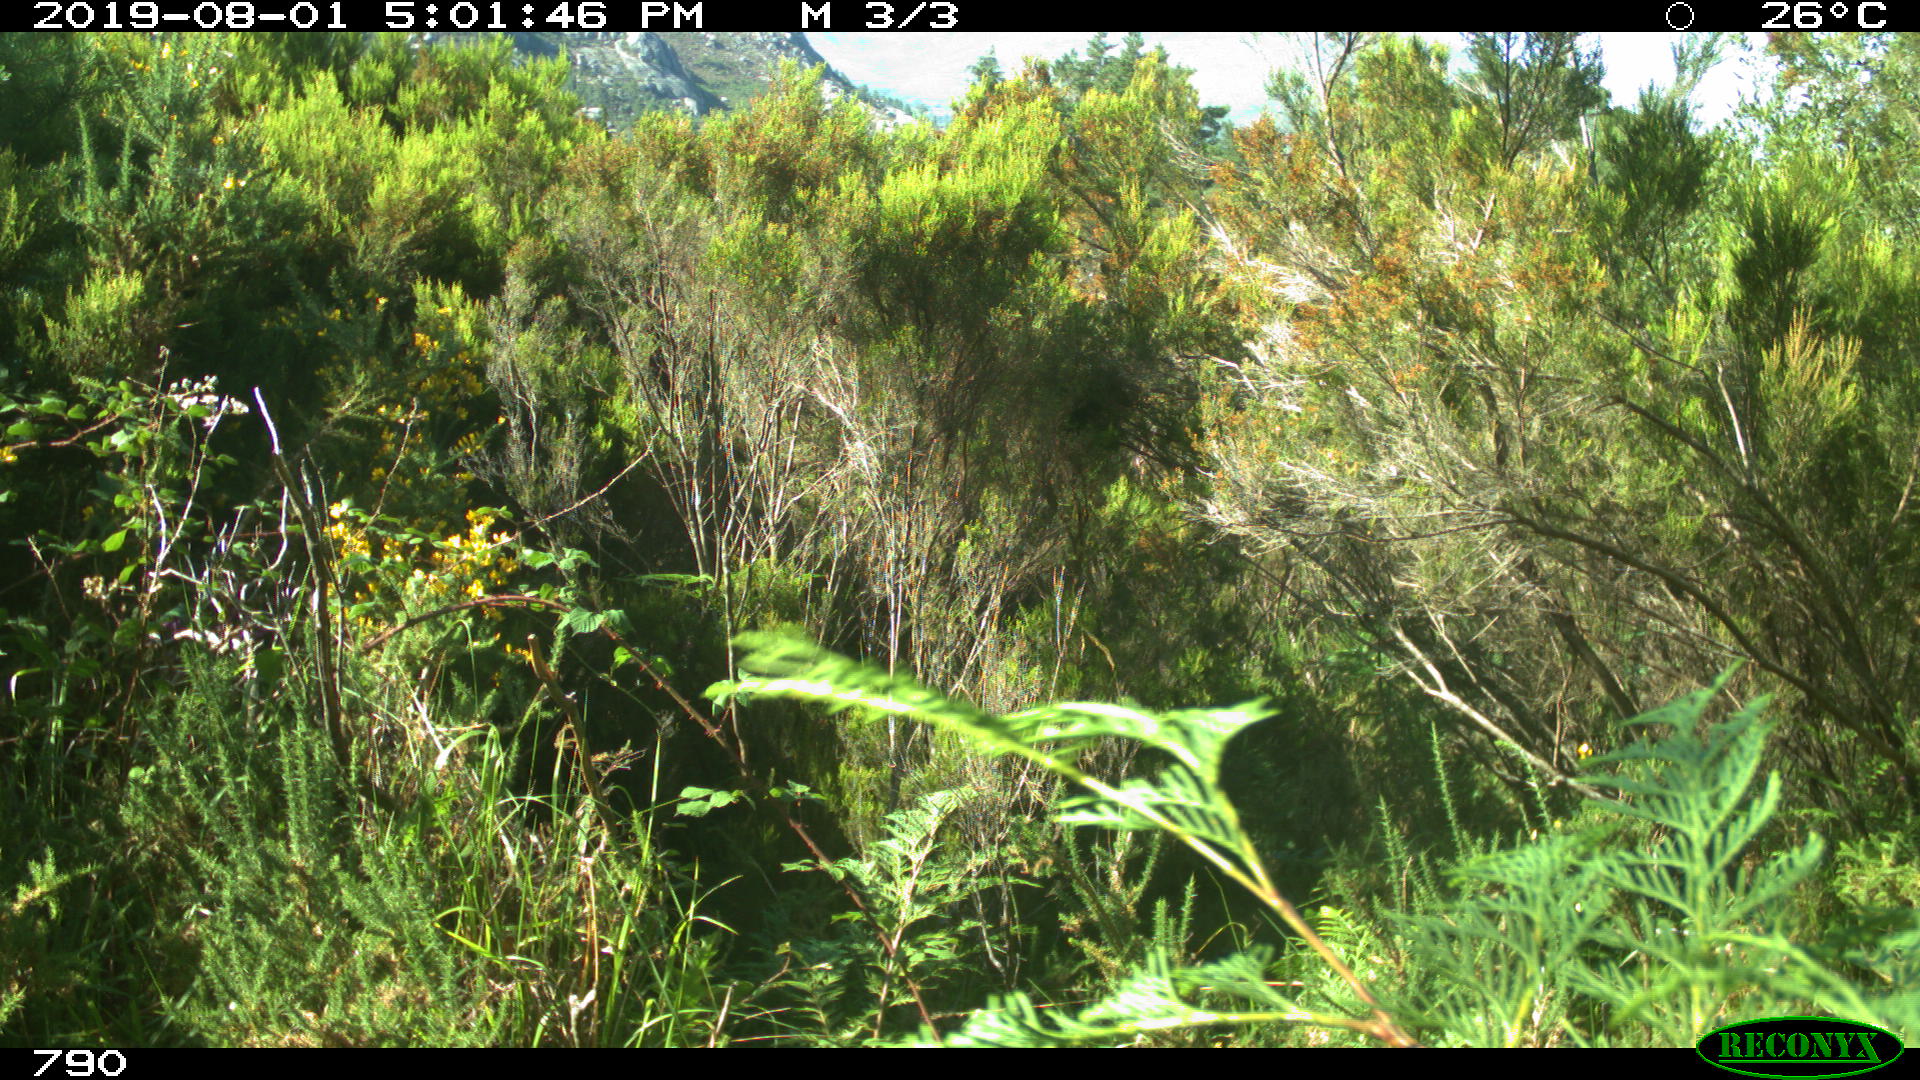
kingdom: Animalia
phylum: Chordata
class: Mammalia
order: Artiodactyla
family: Bovidae
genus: Bos
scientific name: Bos taurus
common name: Domesticated cattle
